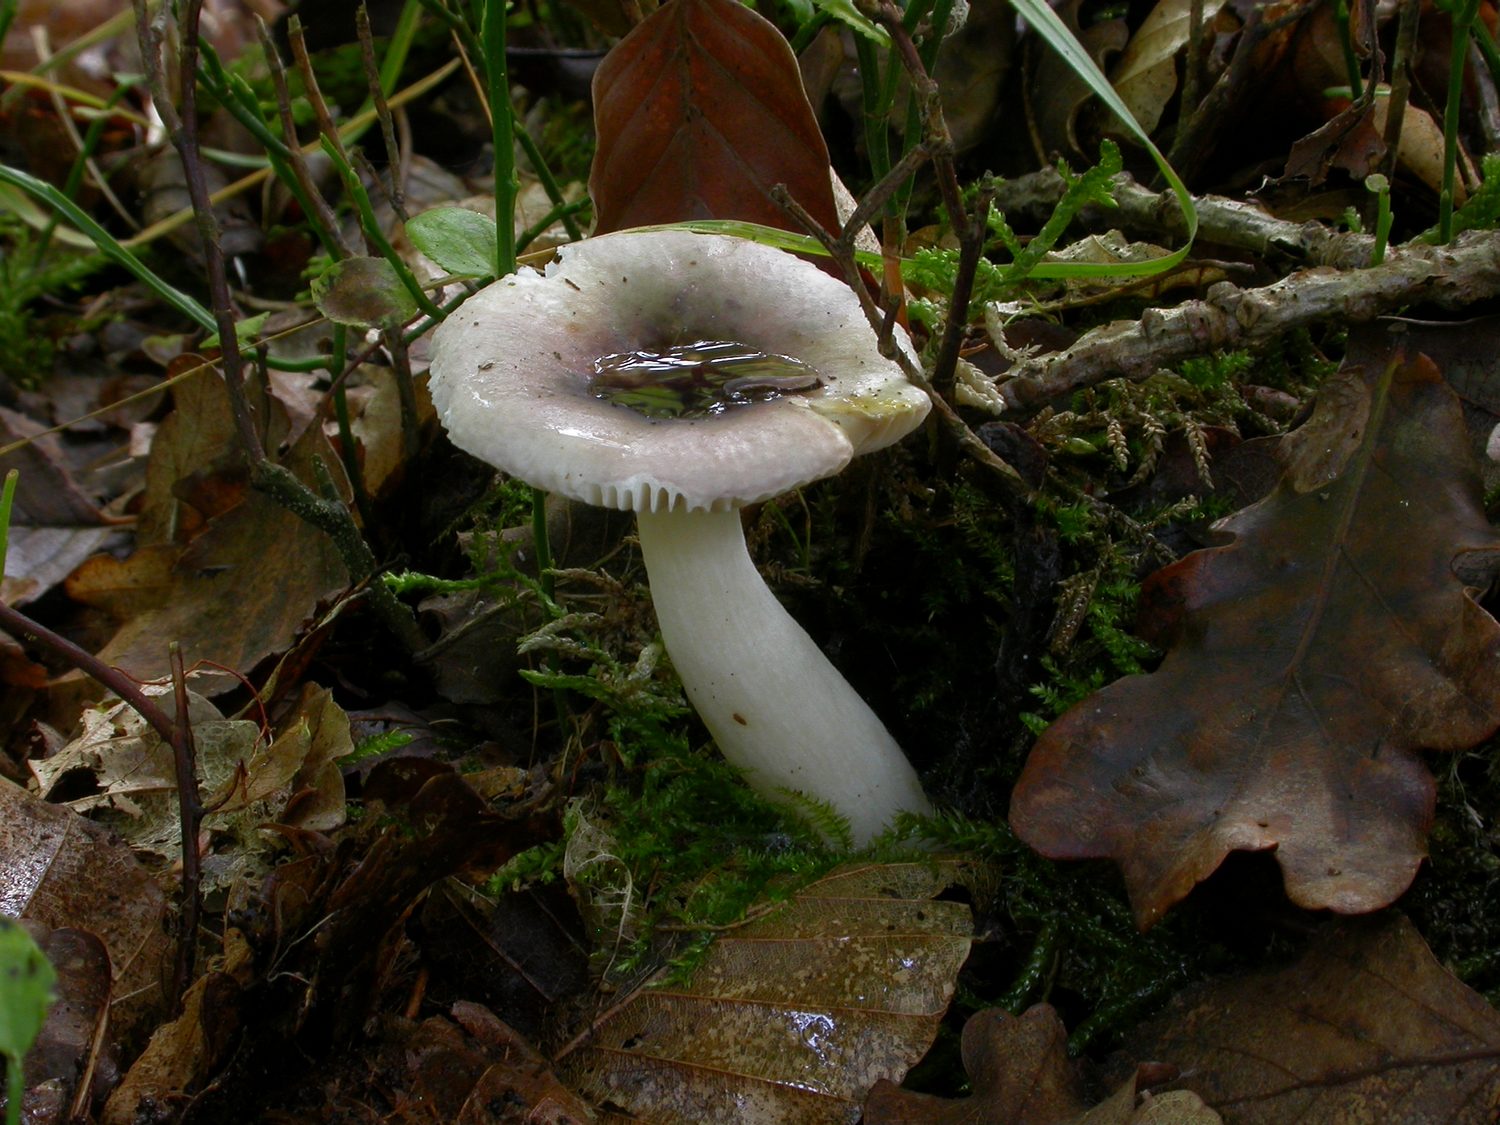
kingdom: Fungi
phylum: Basidiomycota
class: Agaricomycetes
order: Russulales
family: Russulaceae
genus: Russula
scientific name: Russula fragilis
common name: Fragile brittlegill
